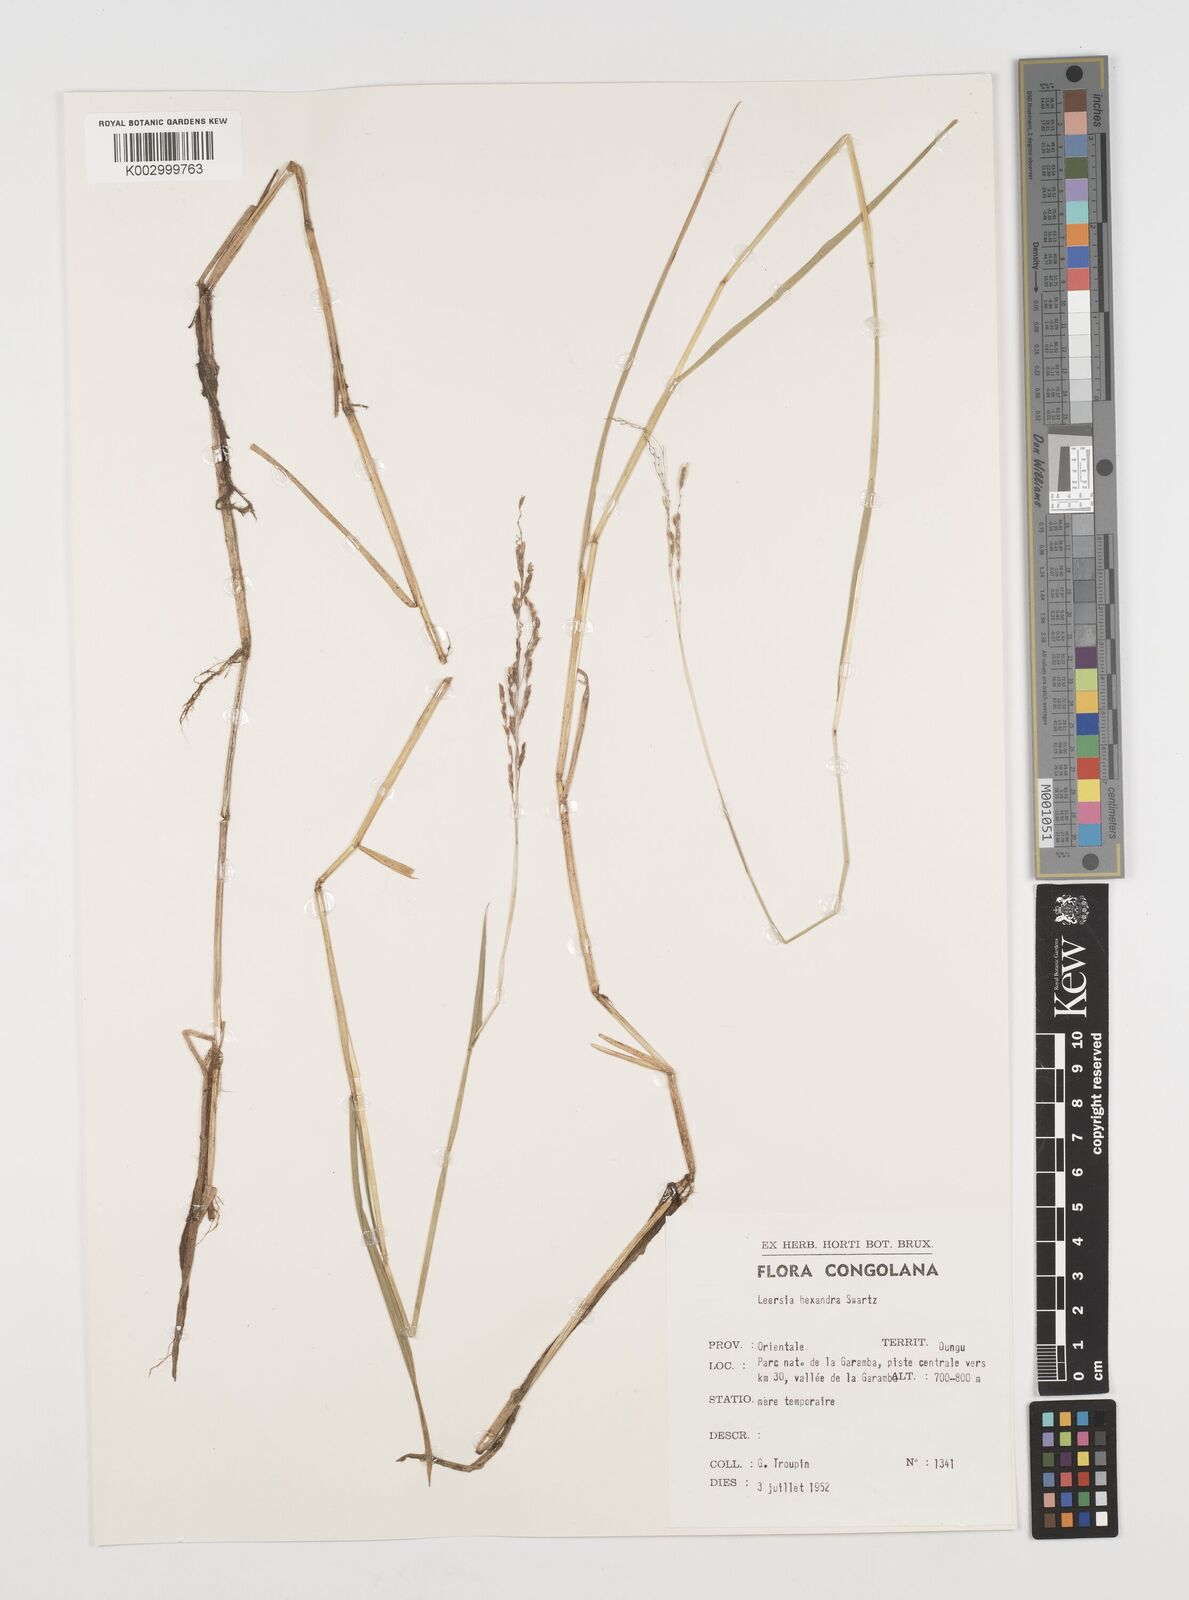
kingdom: Plantae
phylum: Tracheophyta
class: Liliopsida
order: Poales
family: Poaceae
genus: Leersia
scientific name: Leersia hexandra
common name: Southern cut grass
